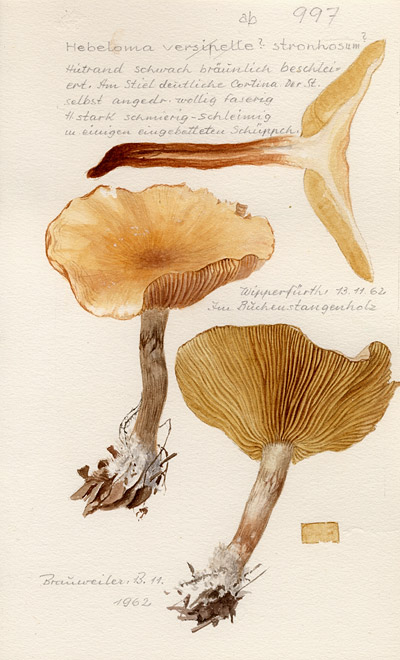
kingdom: Fungi
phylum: Basidiomycota
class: Agaricomycetes
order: Agaricales
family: Hymenogastraceae
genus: Hebeloma
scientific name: Hebeloma mesophaeum
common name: Veiled poisonpie
